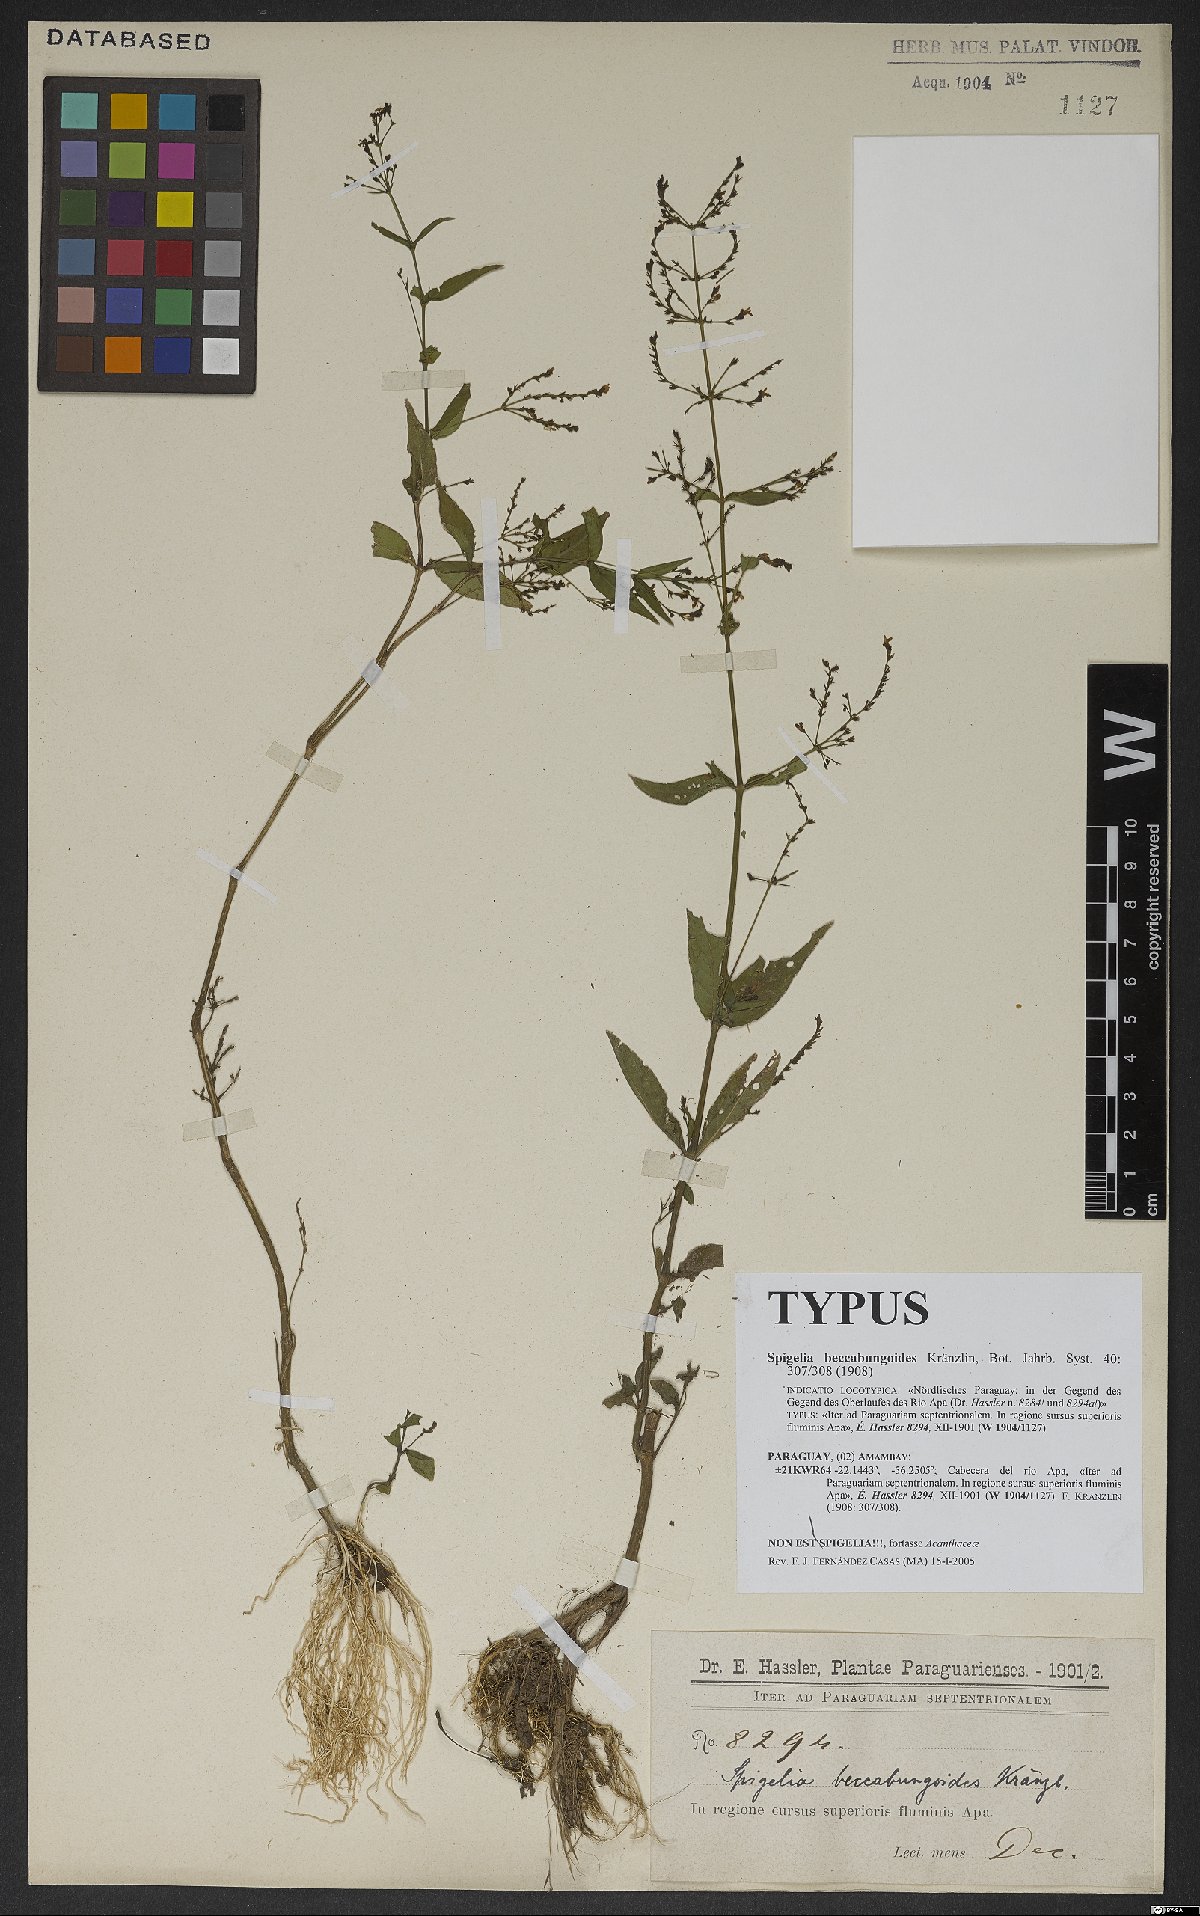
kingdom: Plantae
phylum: Tracheophyta
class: Magnoliopsida
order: Gentianales
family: Loganiaceae
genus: Spigelia
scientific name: Spigelia beccabungoides
